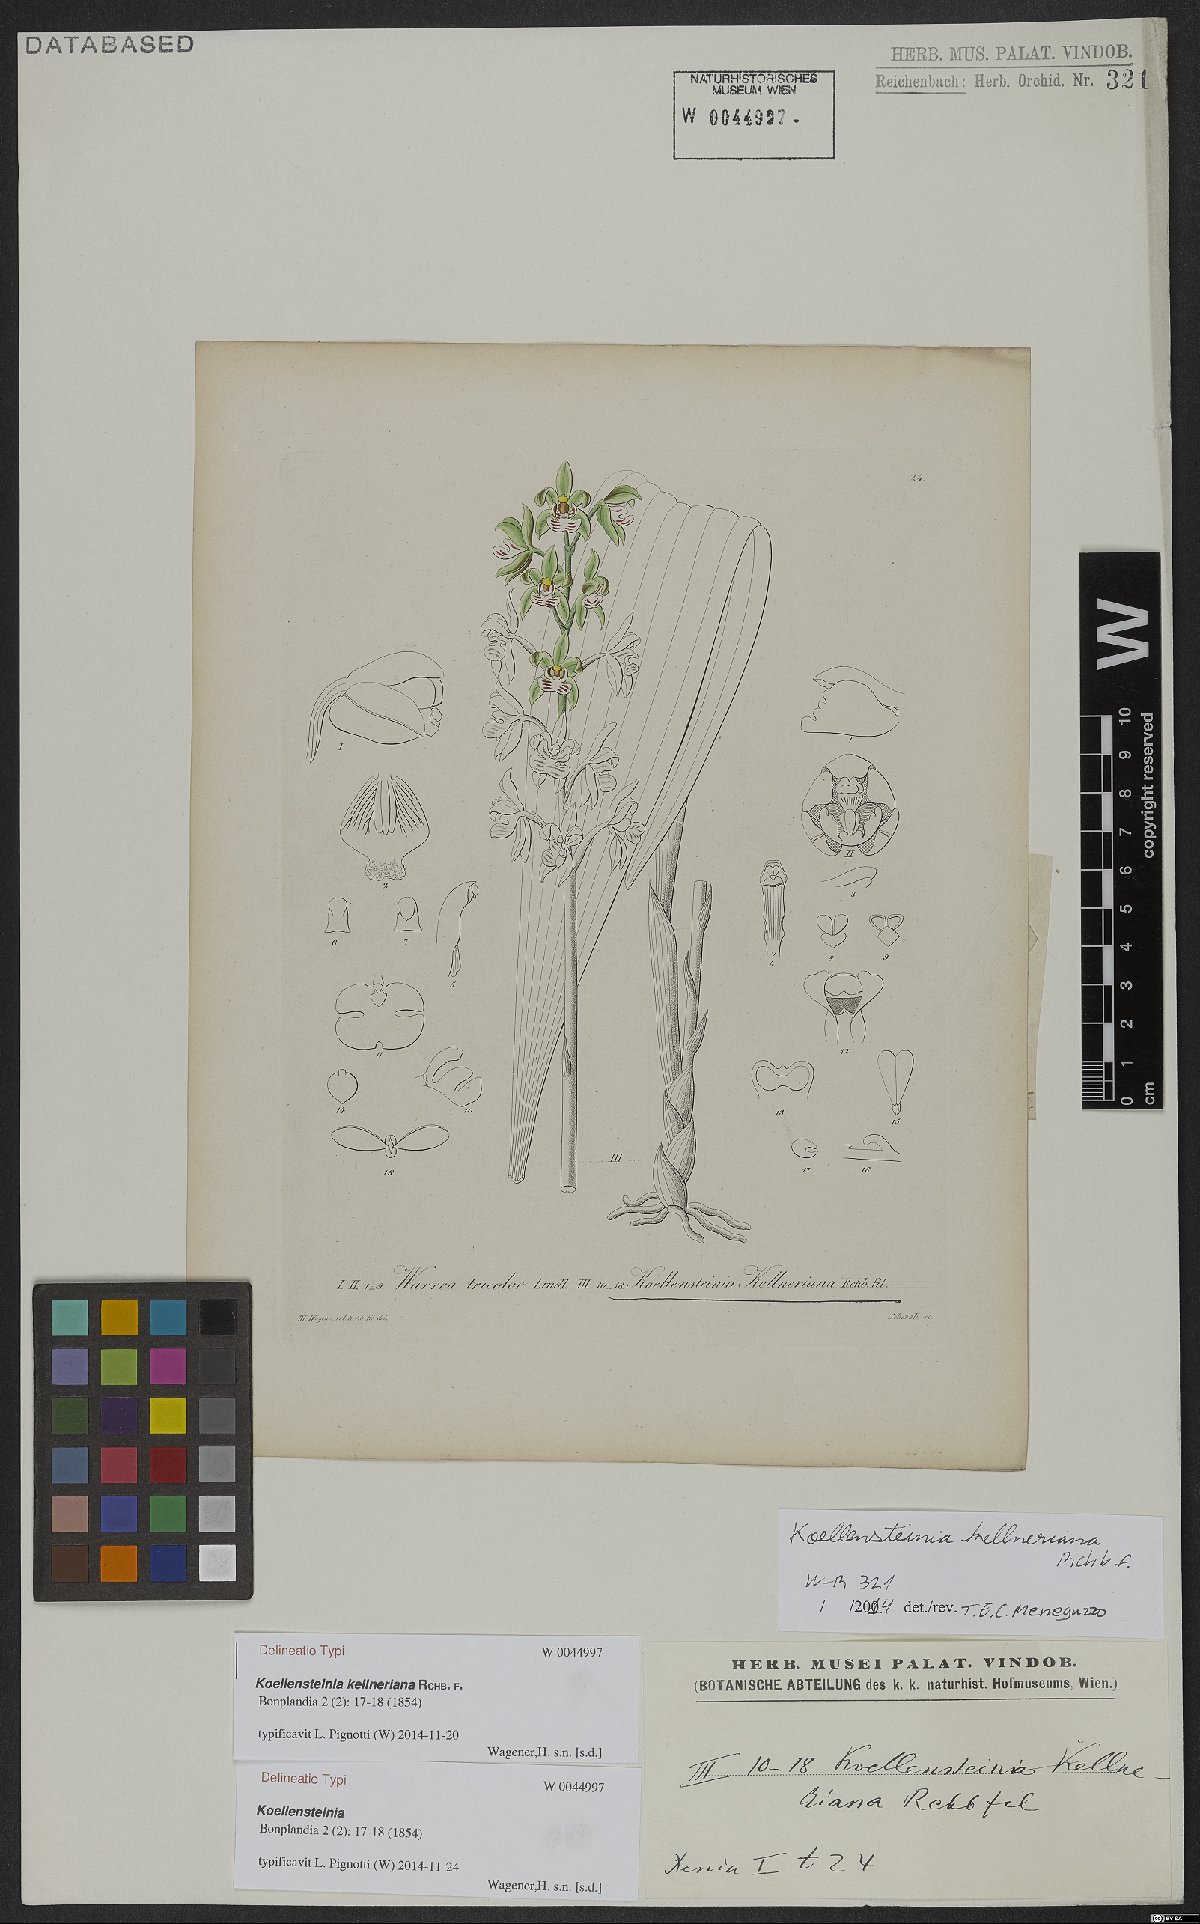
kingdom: Plantae
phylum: Tracheophyta
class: Liliopsida
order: Asparagales
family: Orchidaceae
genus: Koellensteinia
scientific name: Koellensteinia kellneriana
